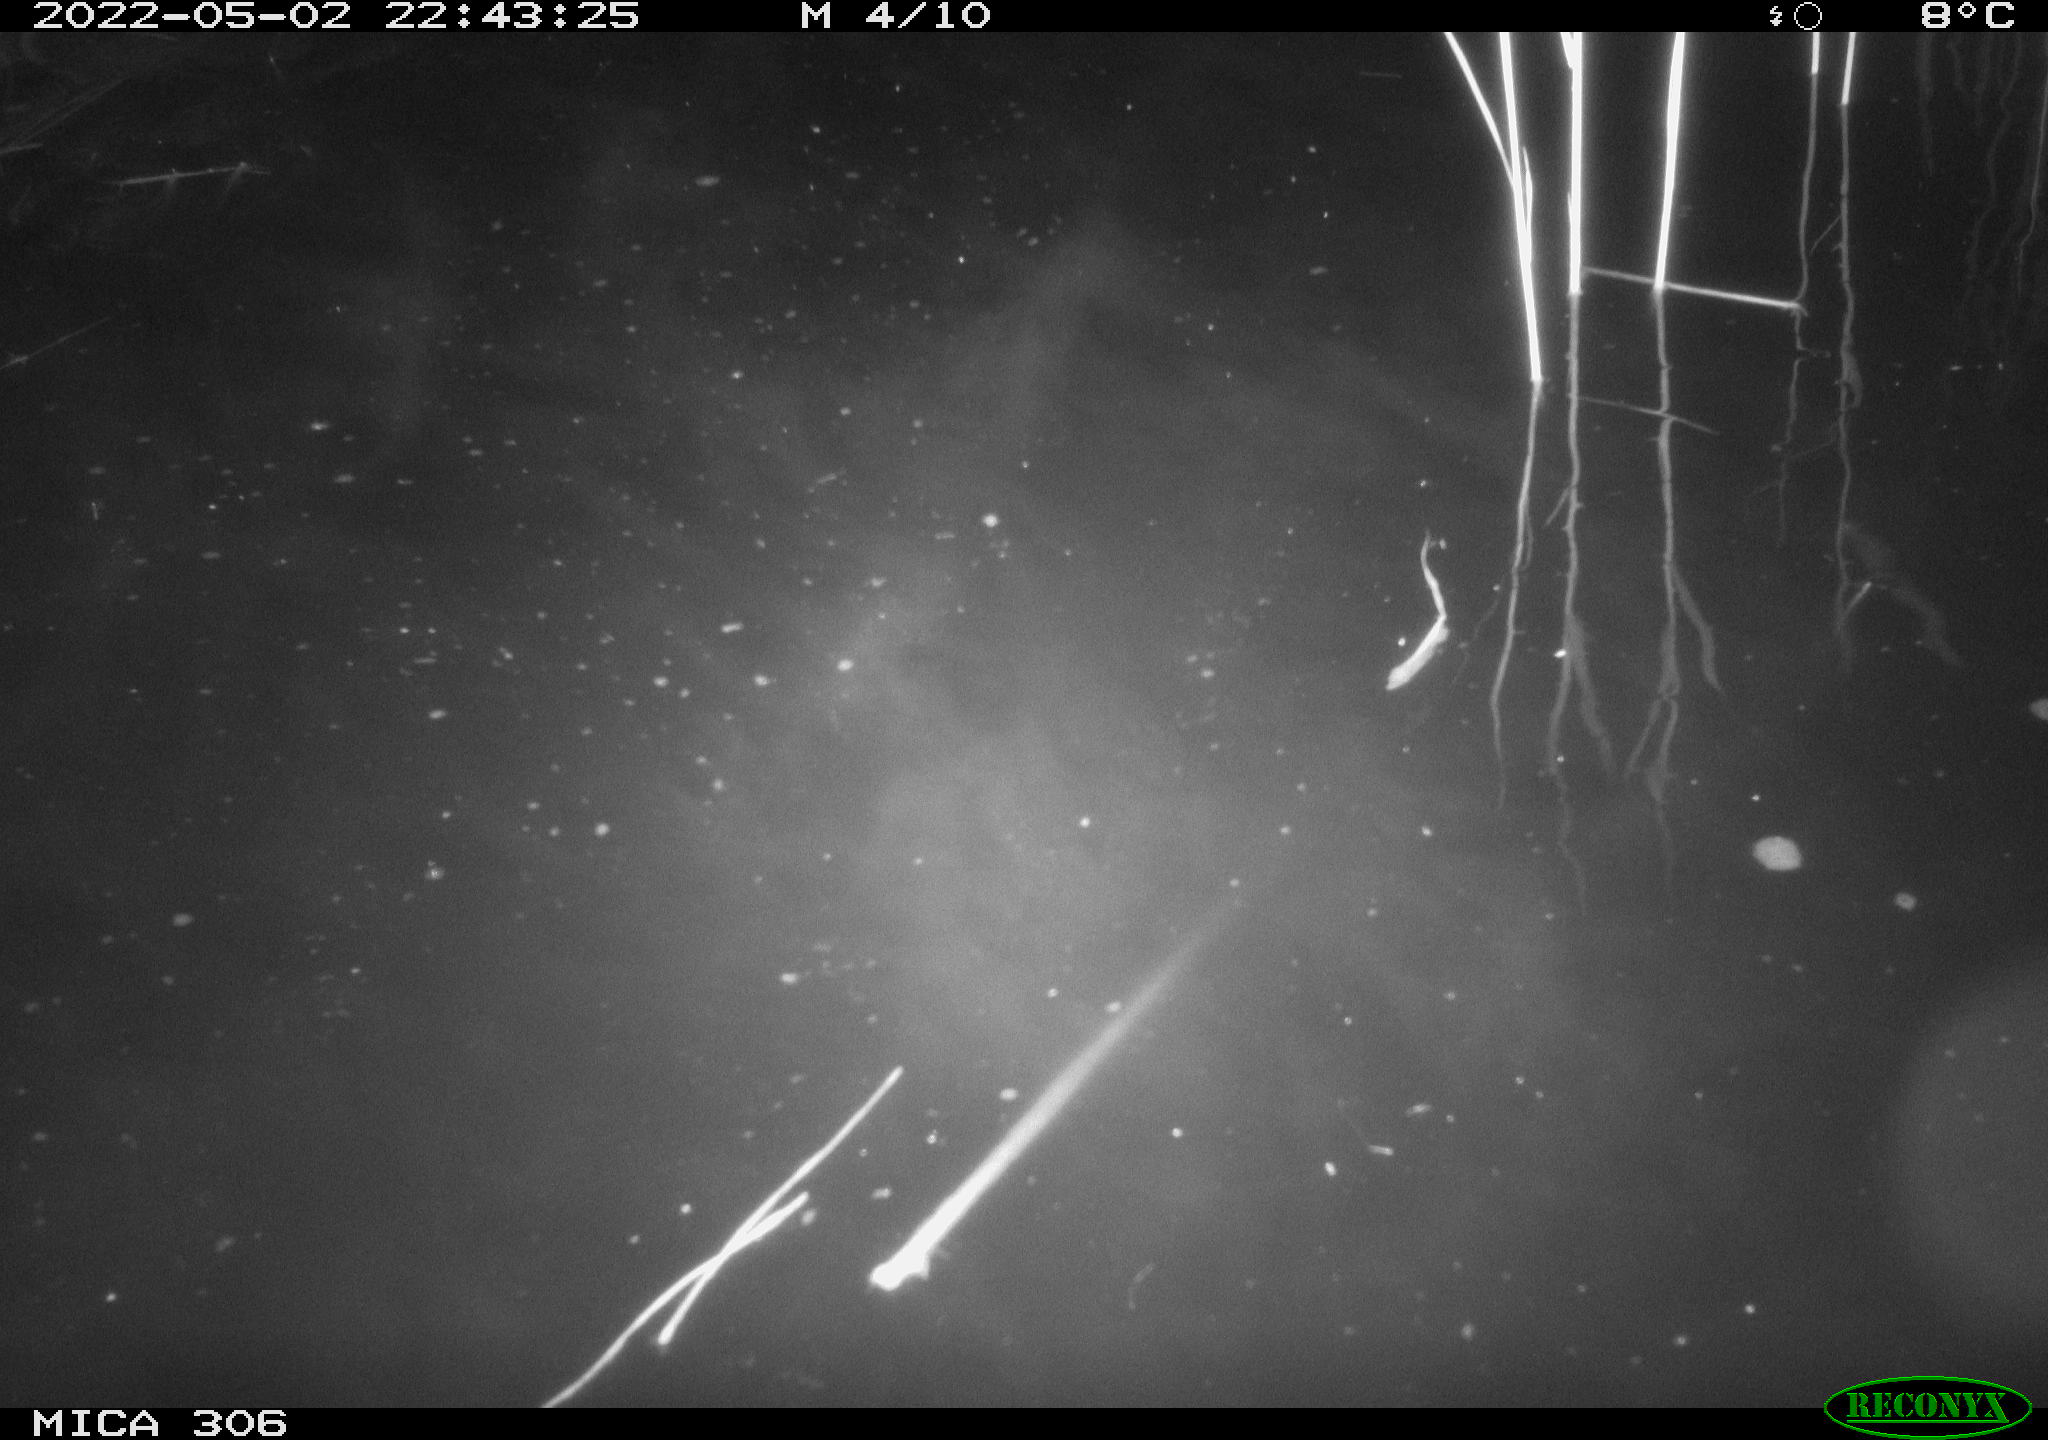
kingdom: Animalia
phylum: Chordata
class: Mammalia
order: Rodentia
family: Cricetidae
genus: Ondatra
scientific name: Ondatra zibethicus
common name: Muskrat
